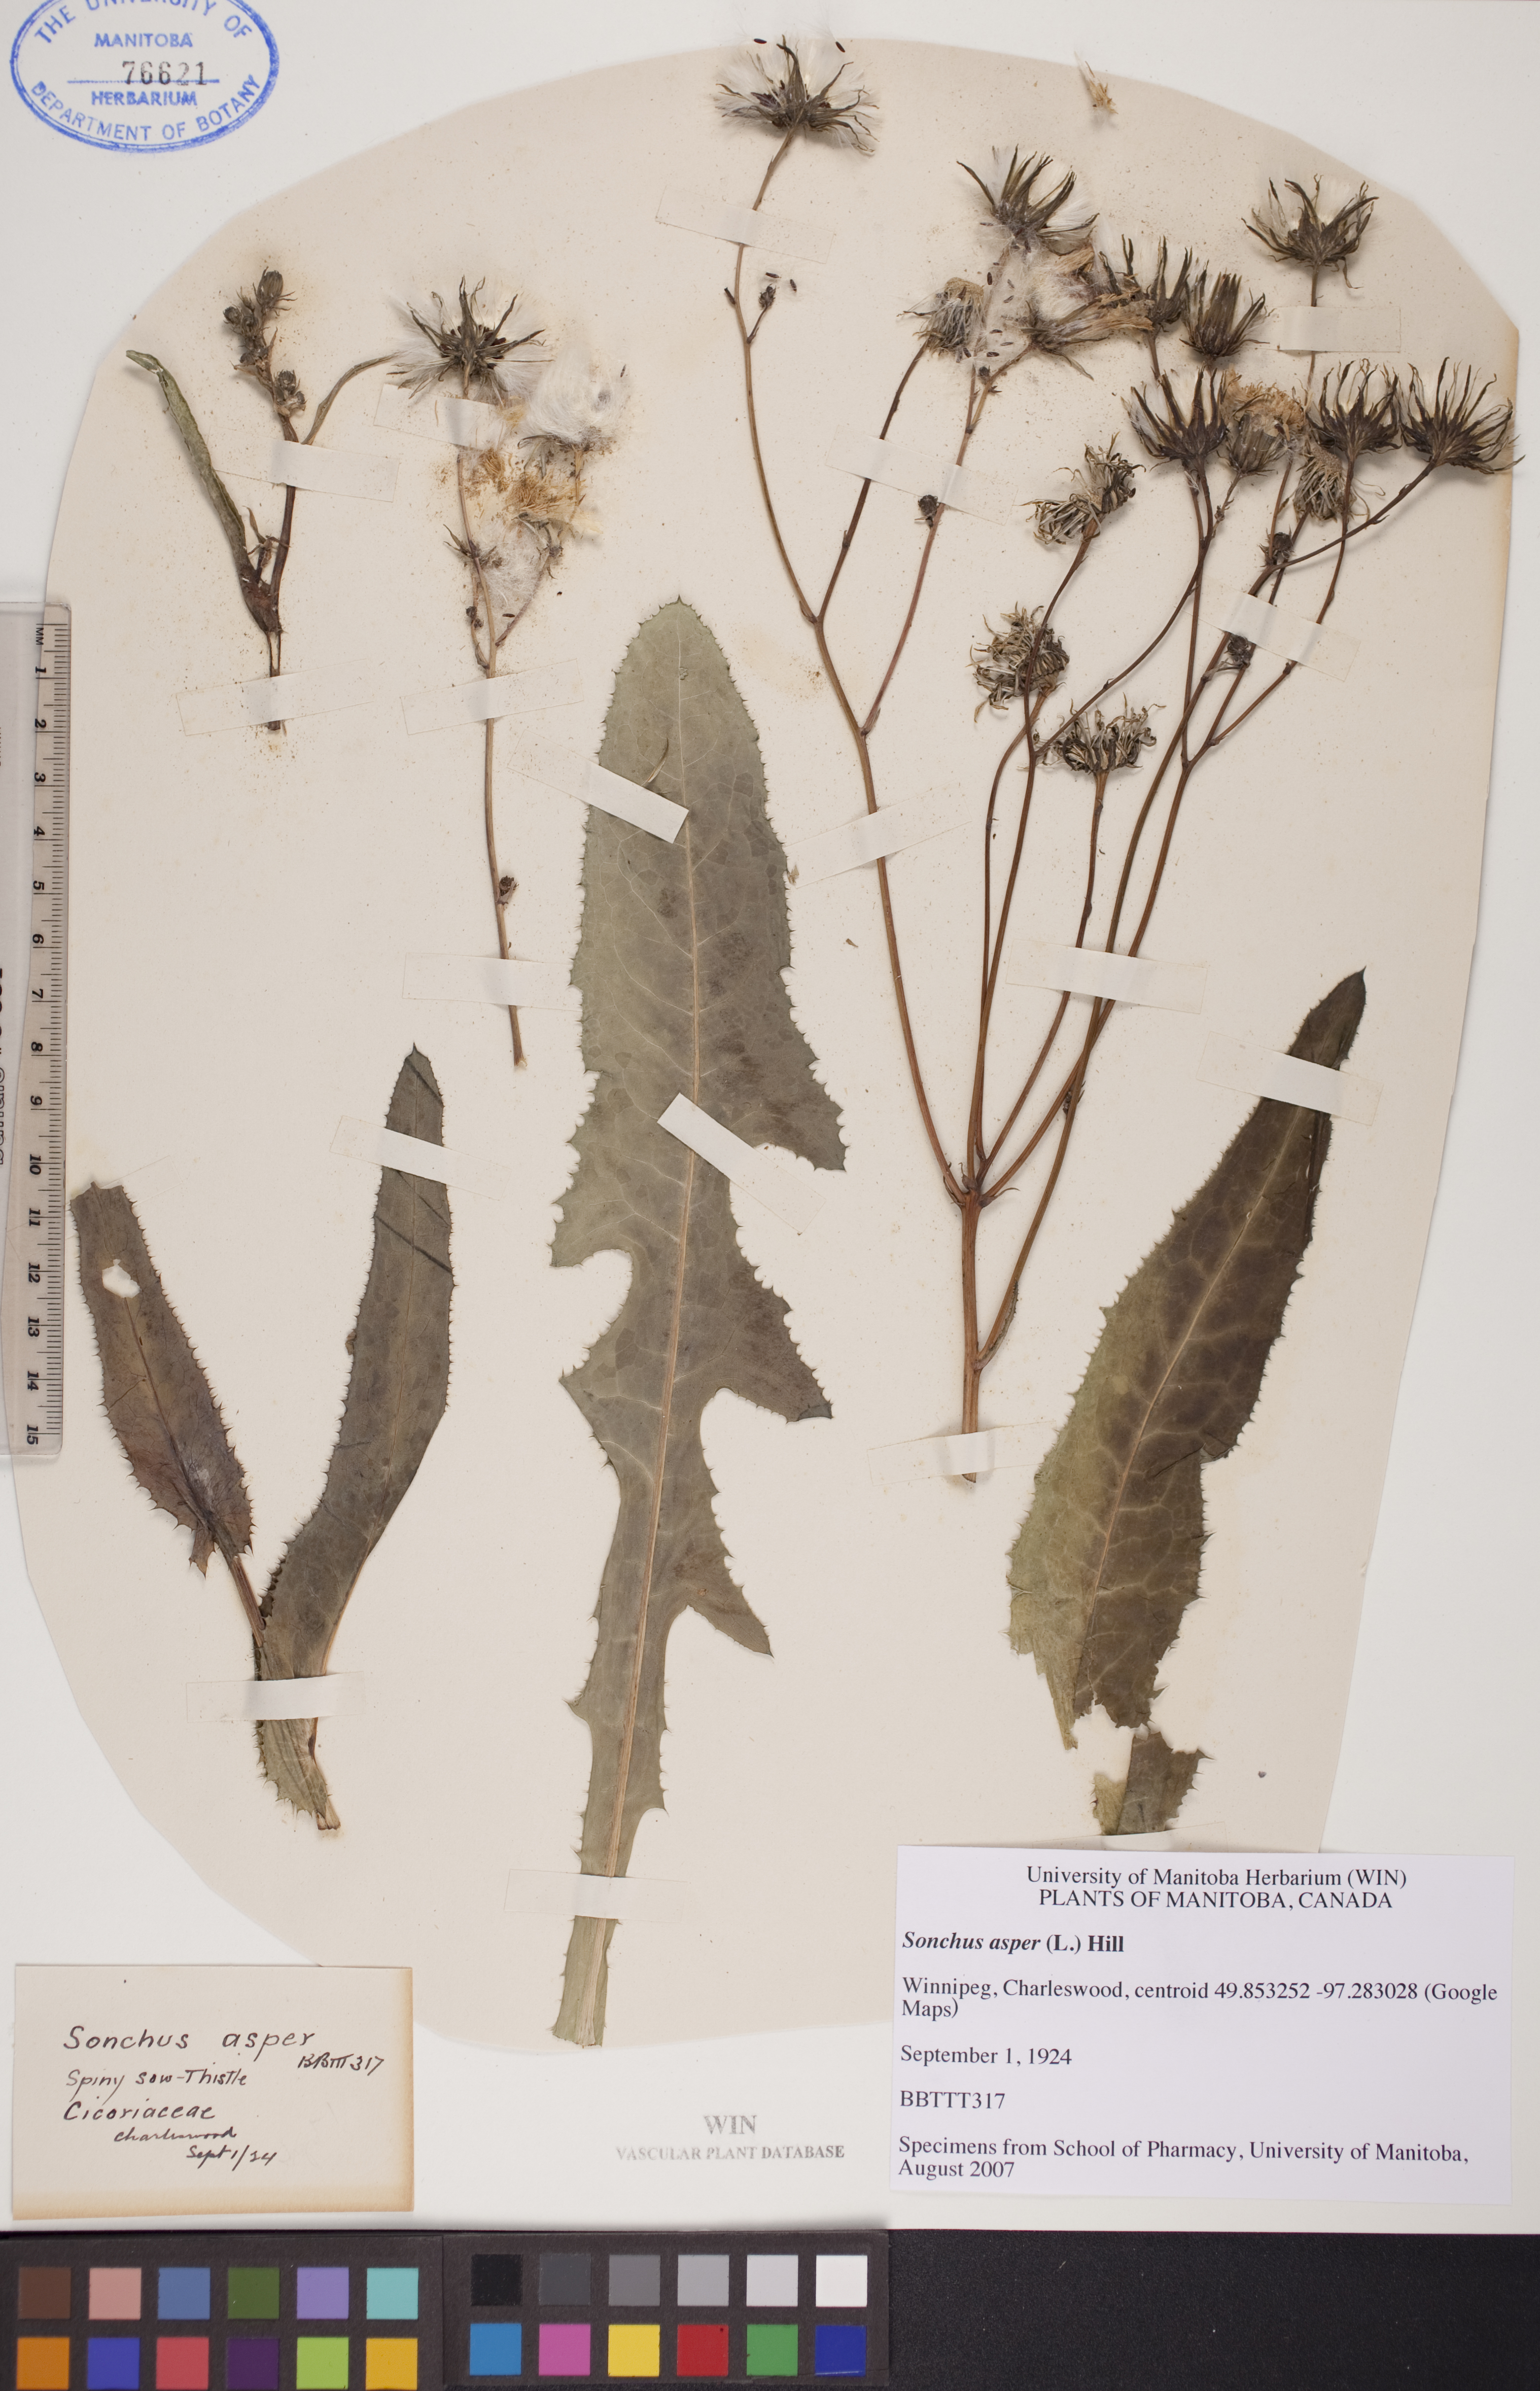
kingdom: Plantae
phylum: Tracheophyta
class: Magnoliopsida
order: Asterales
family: Asteraceae
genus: Sonchus
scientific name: Sonchus asper
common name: Prickly sow-thistle
